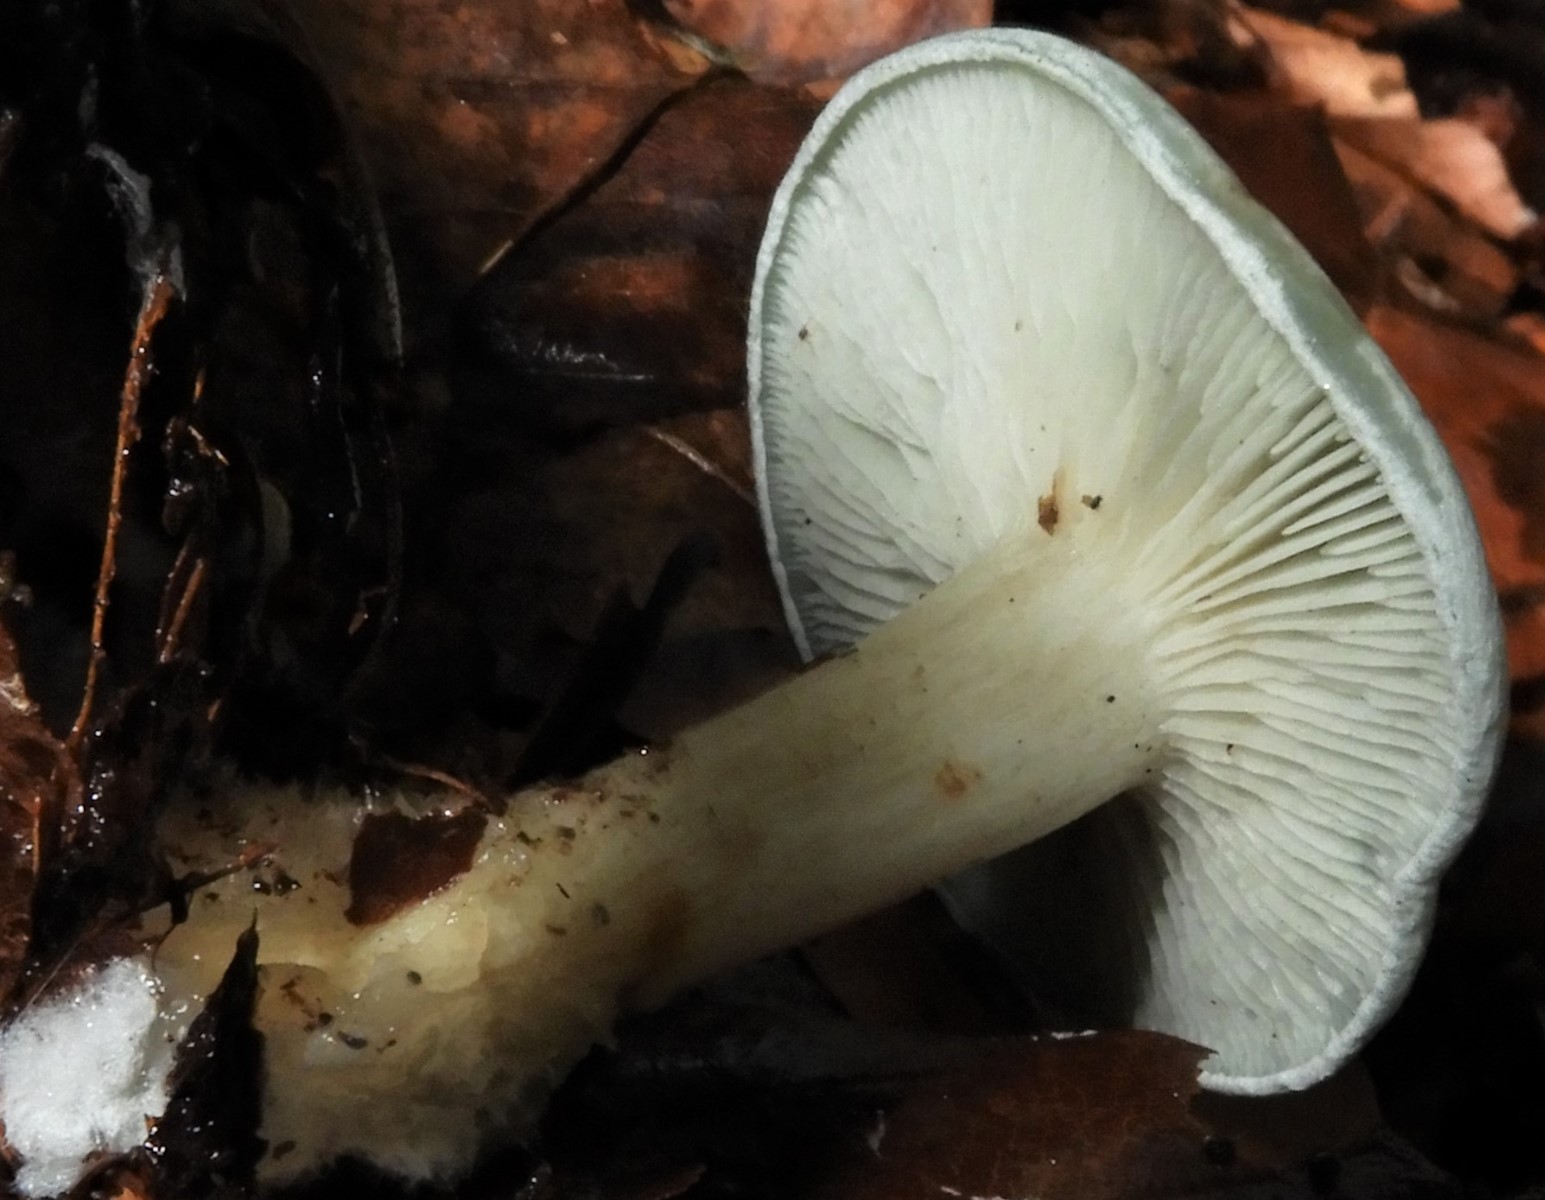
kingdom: Fungi
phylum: Basidiomycota
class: Agaricomycetes
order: Agaricales
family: Tricholomataceae
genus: Clitocybe
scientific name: Clitocybe odora
